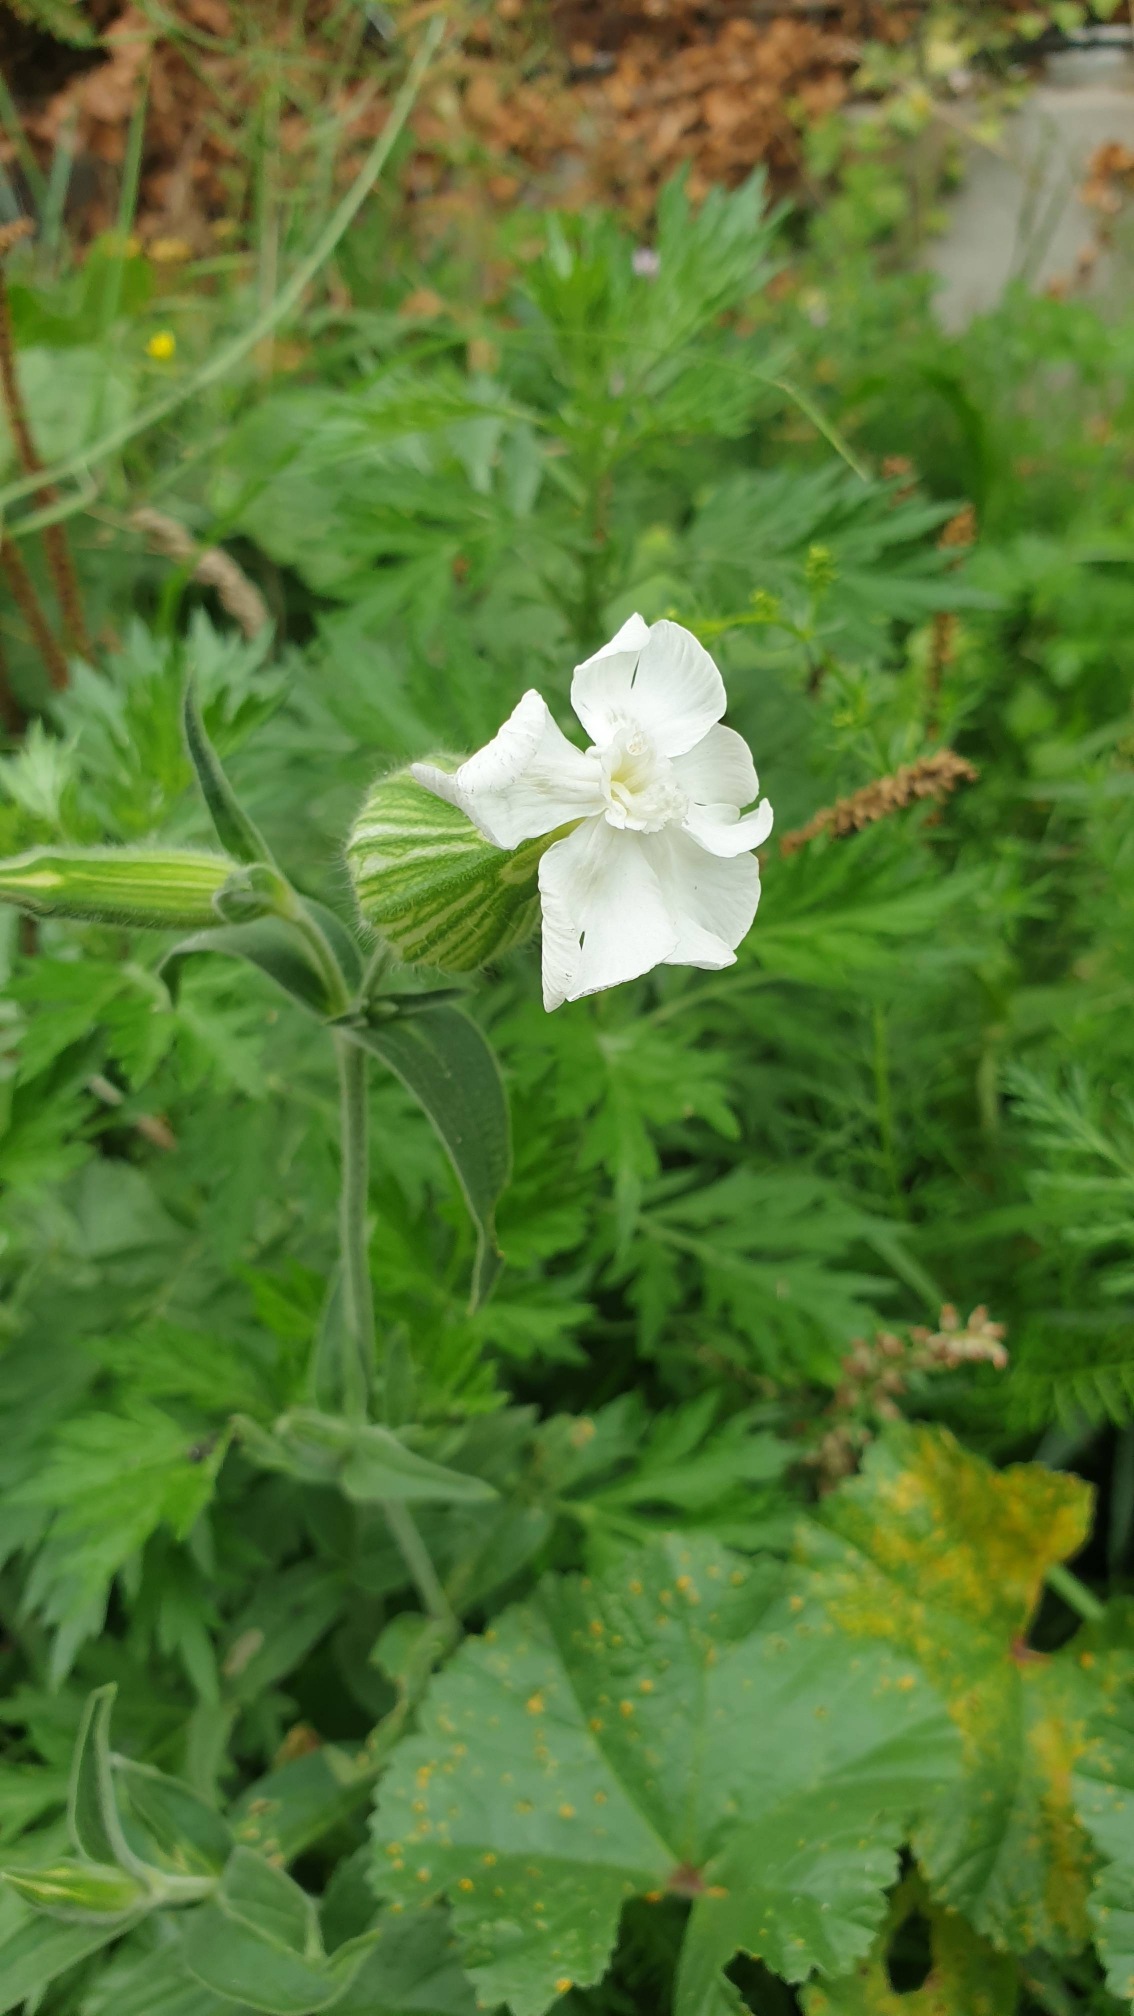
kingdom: Plantae
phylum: Tracheophyta
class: Magnoliopsida
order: Caryophyllales
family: Caryophyllaceae
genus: Silene
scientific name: Silene latifolia
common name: Aftenpragtstjerne
